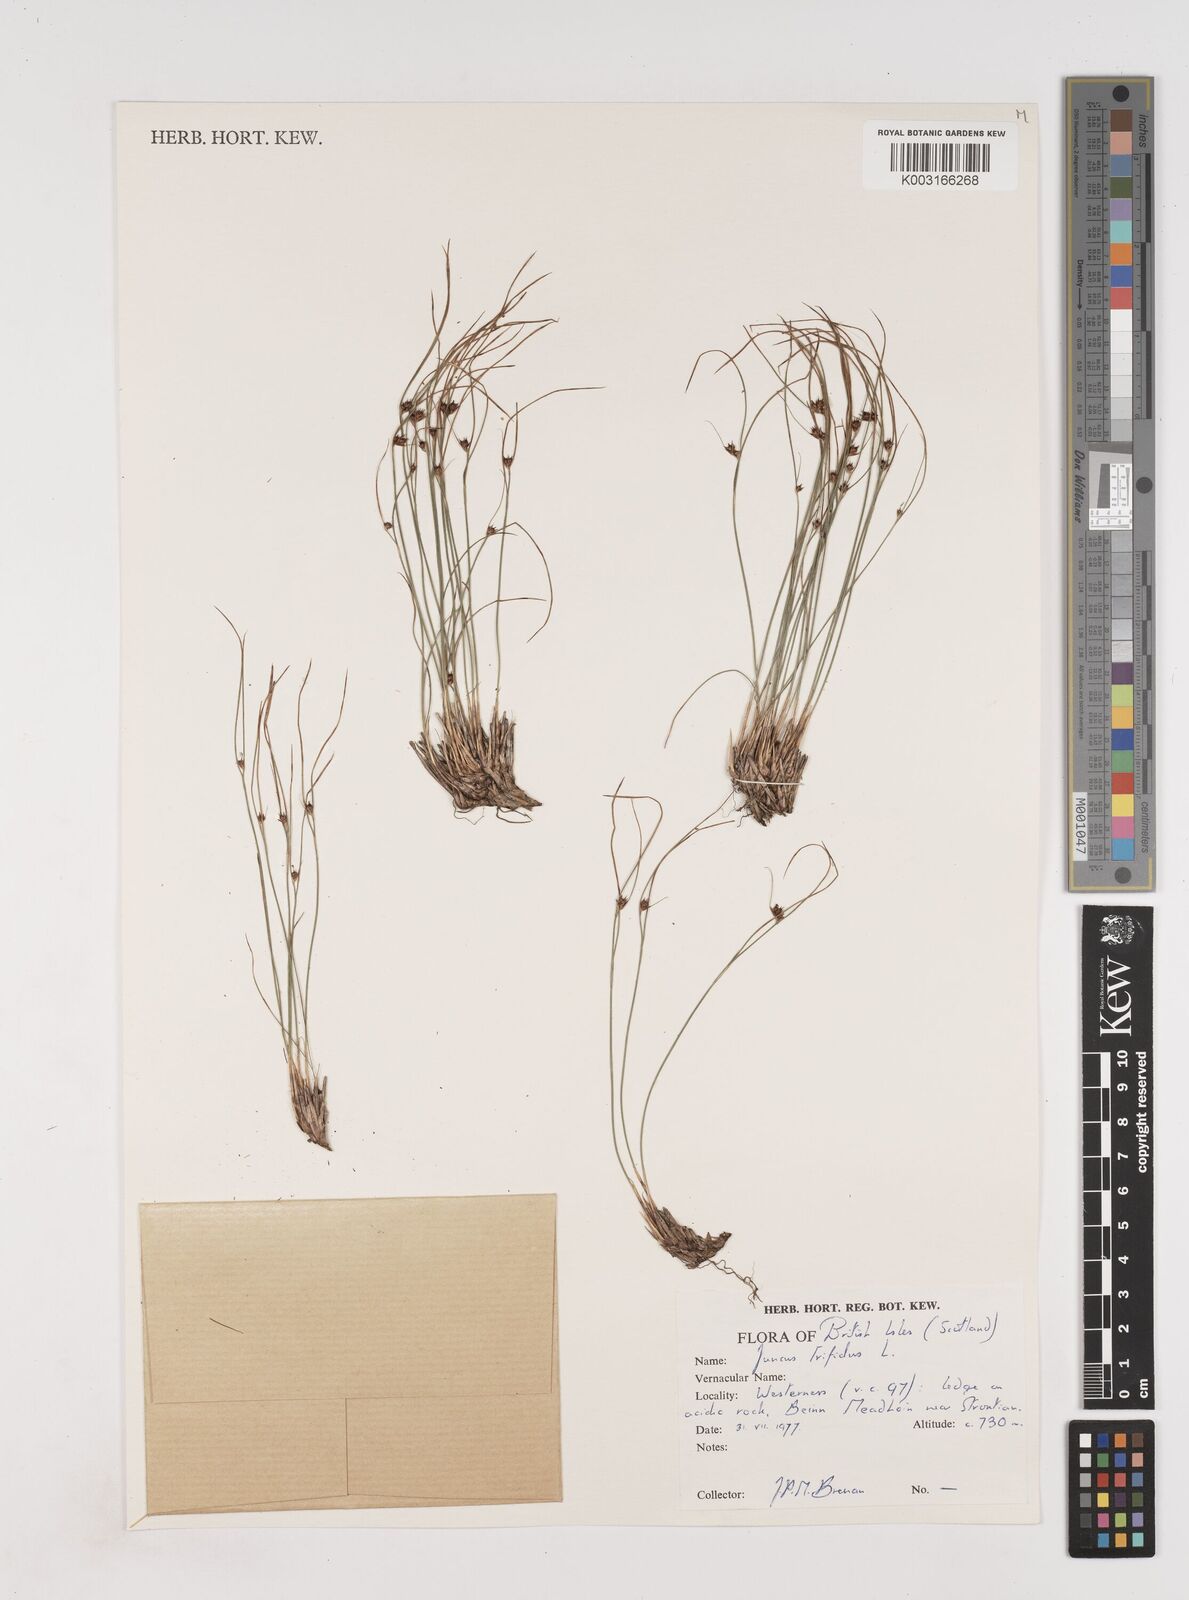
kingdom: Plantae
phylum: Tracheophyta
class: Liliopsida
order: Poales
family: Juncaceae
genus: Oreojuncus
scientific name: Oreojuncus trifidus
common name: Highland rush
